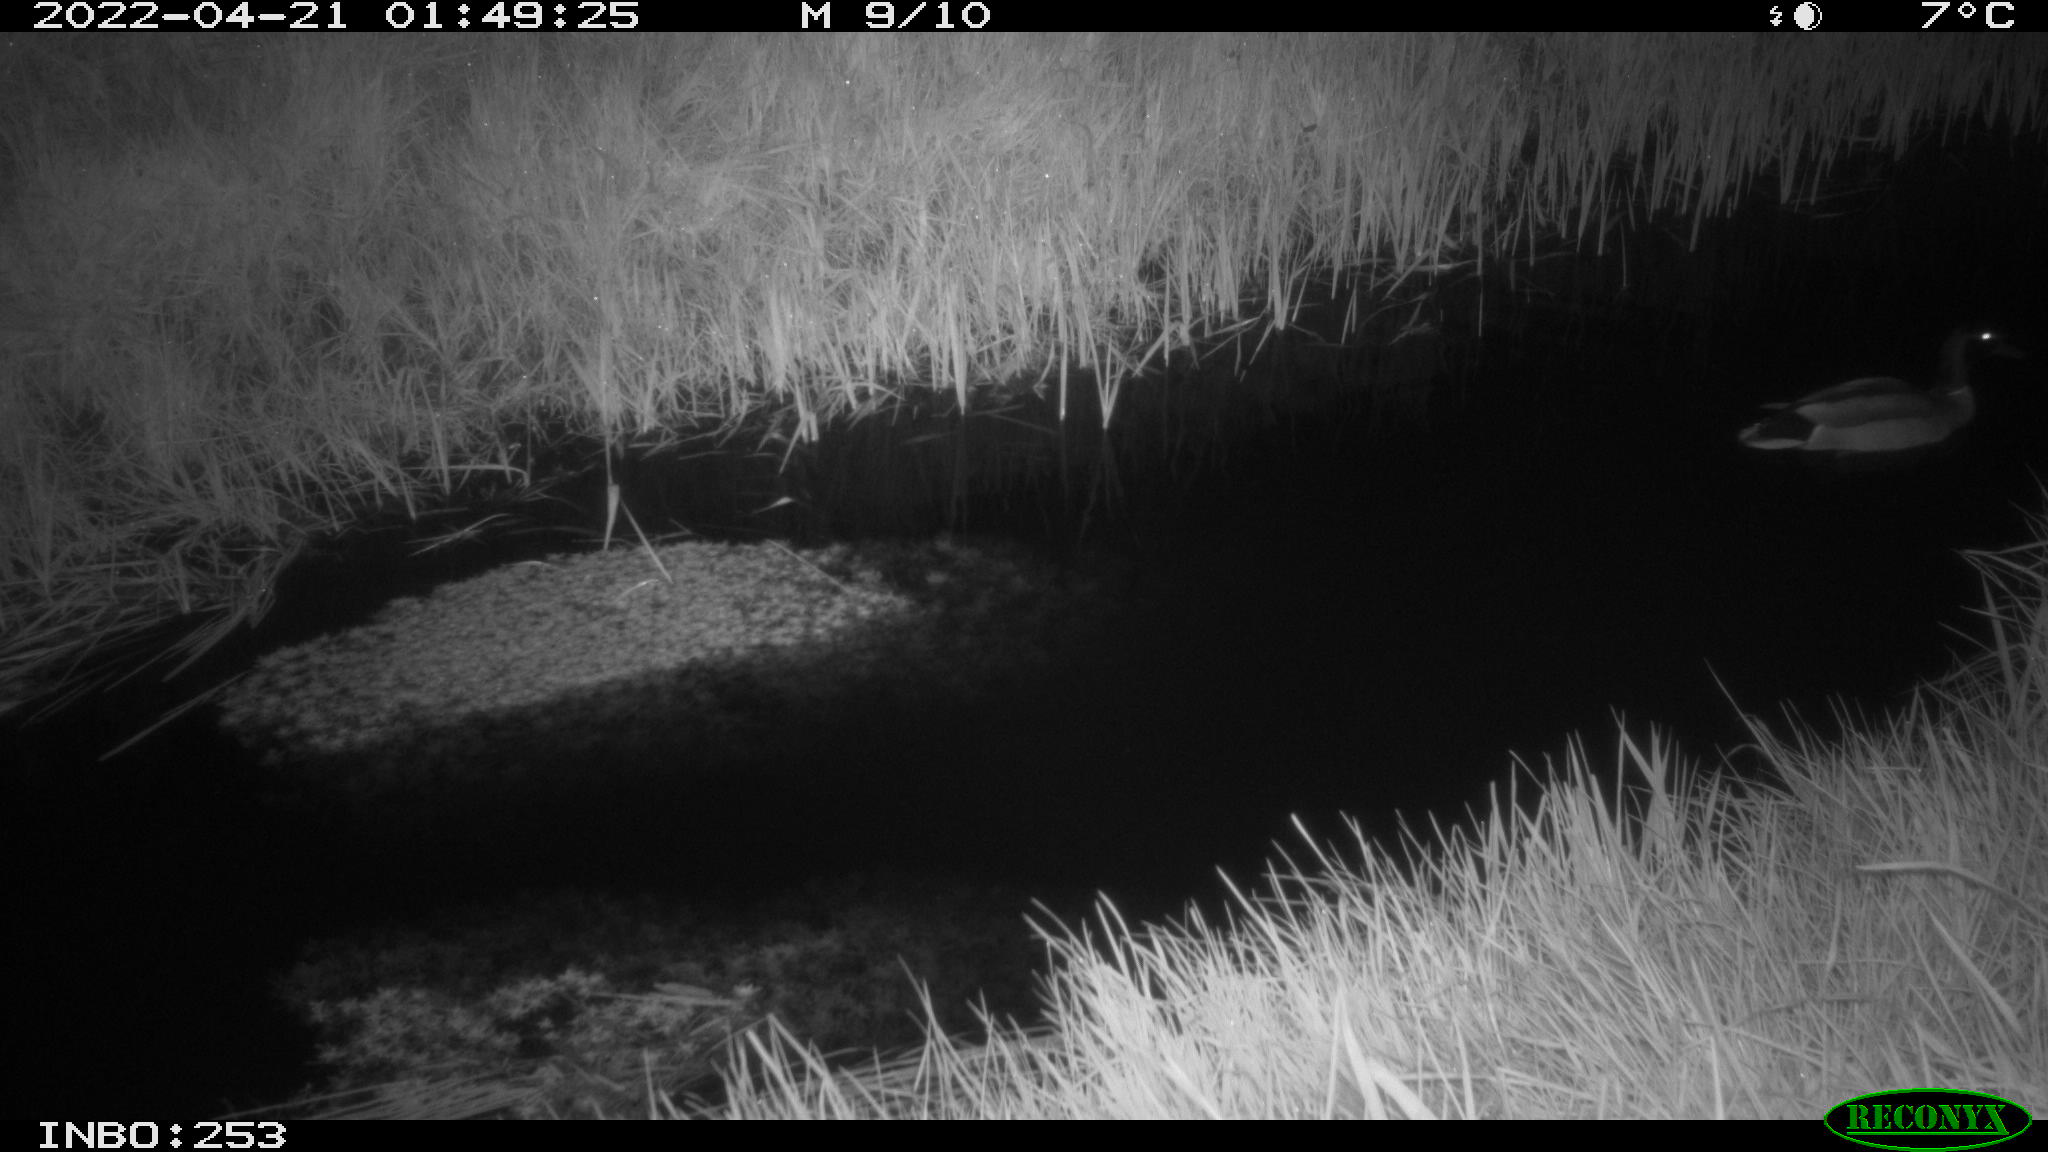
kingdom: Animalia
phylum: Chordata
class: Aves
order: Anseriformes
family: Anatidae
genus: Anas
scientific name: Anas platyrhynchos
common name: Mallard
